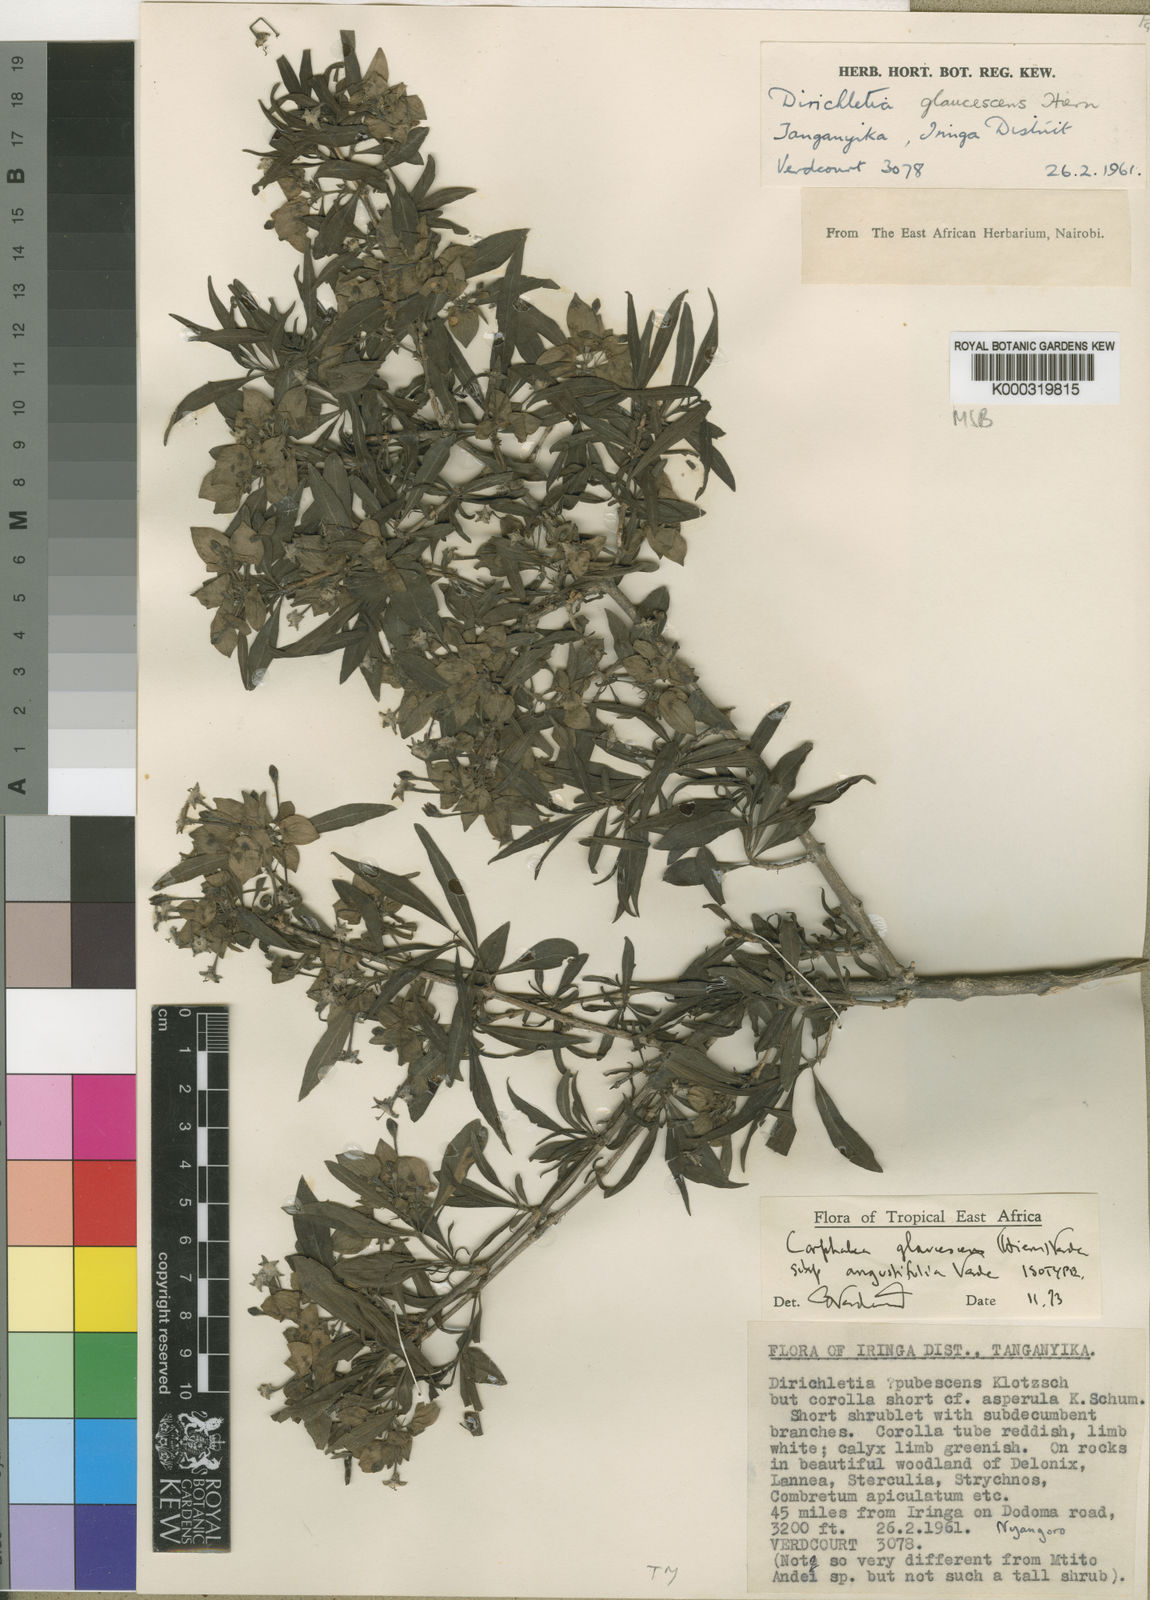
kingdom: Plantae
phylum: Tracheophyta
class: Magnoliopsida
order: Gentianales
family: Rubiaceae
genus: Dirichletia
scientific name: Dirichletia glaucescens
